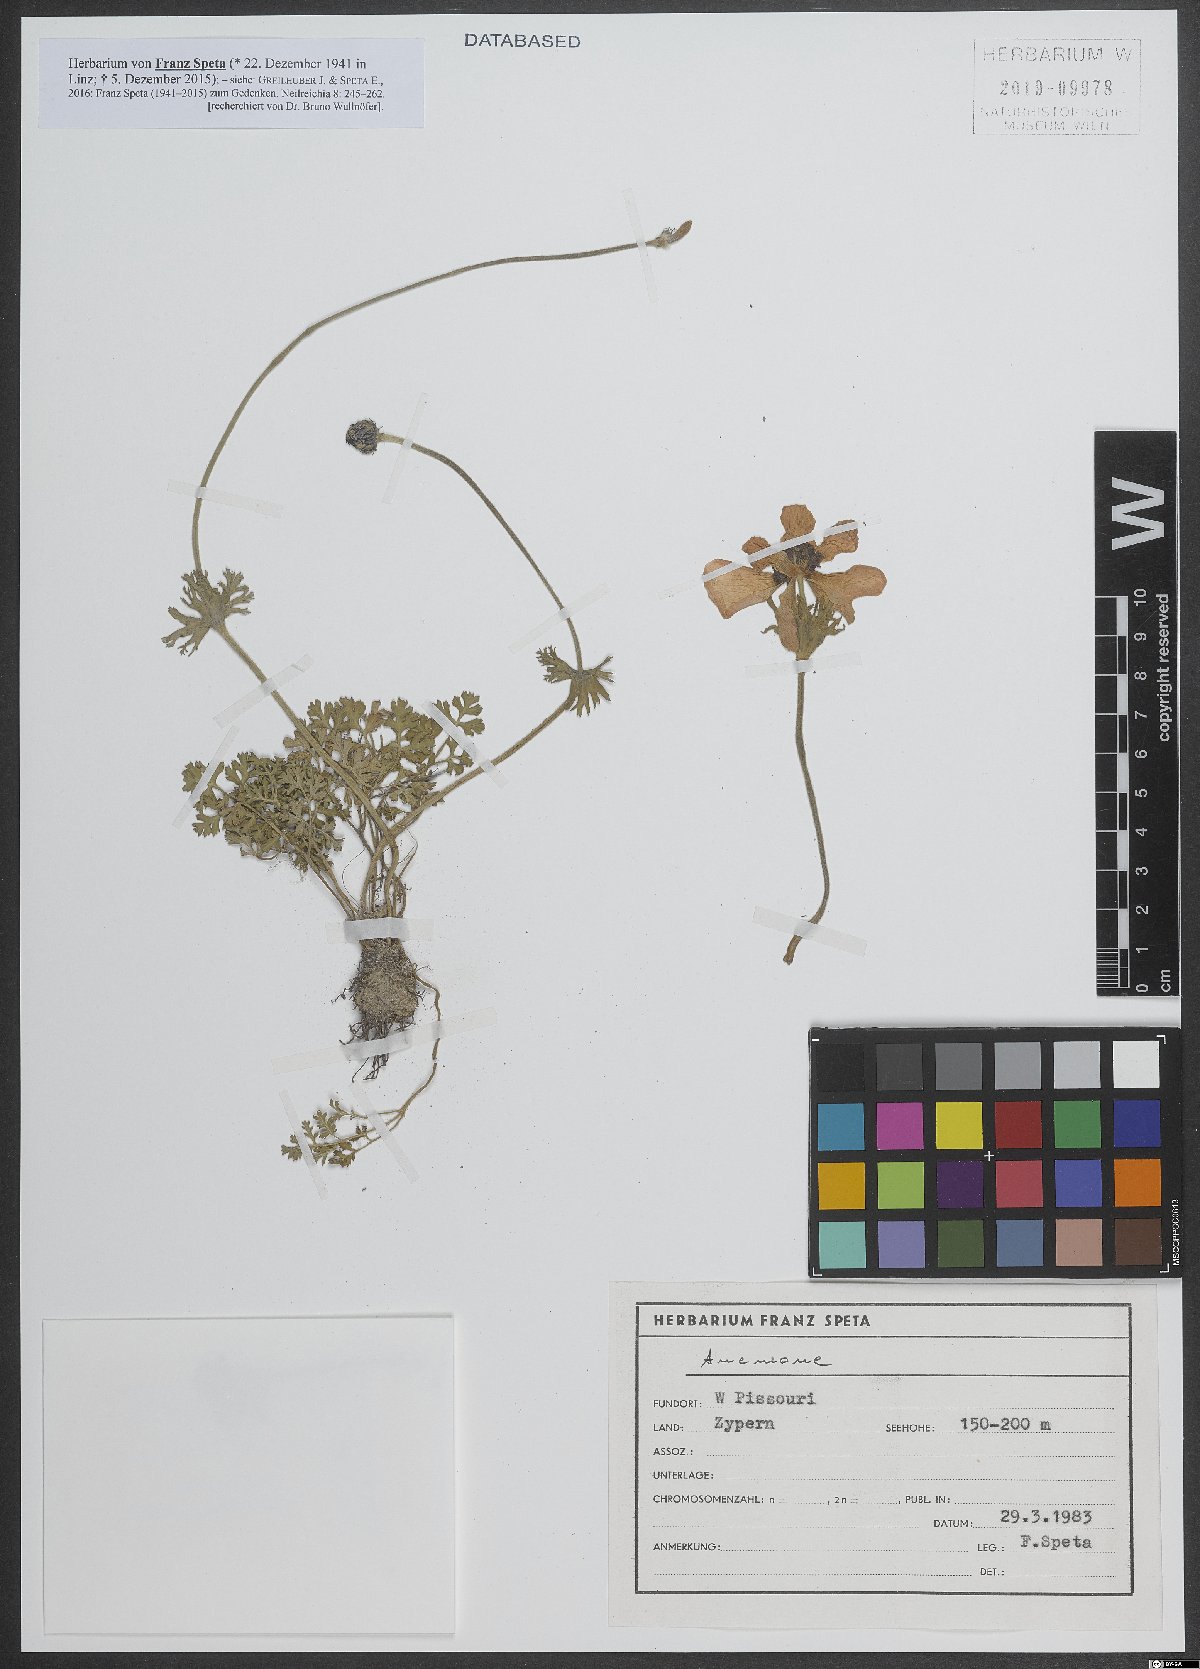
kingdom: Plantae
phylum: Tracheophyta
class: Magnoliopsida
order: Ranunculales
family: Ranunculaceae
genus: Anemone
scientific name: Anemone
